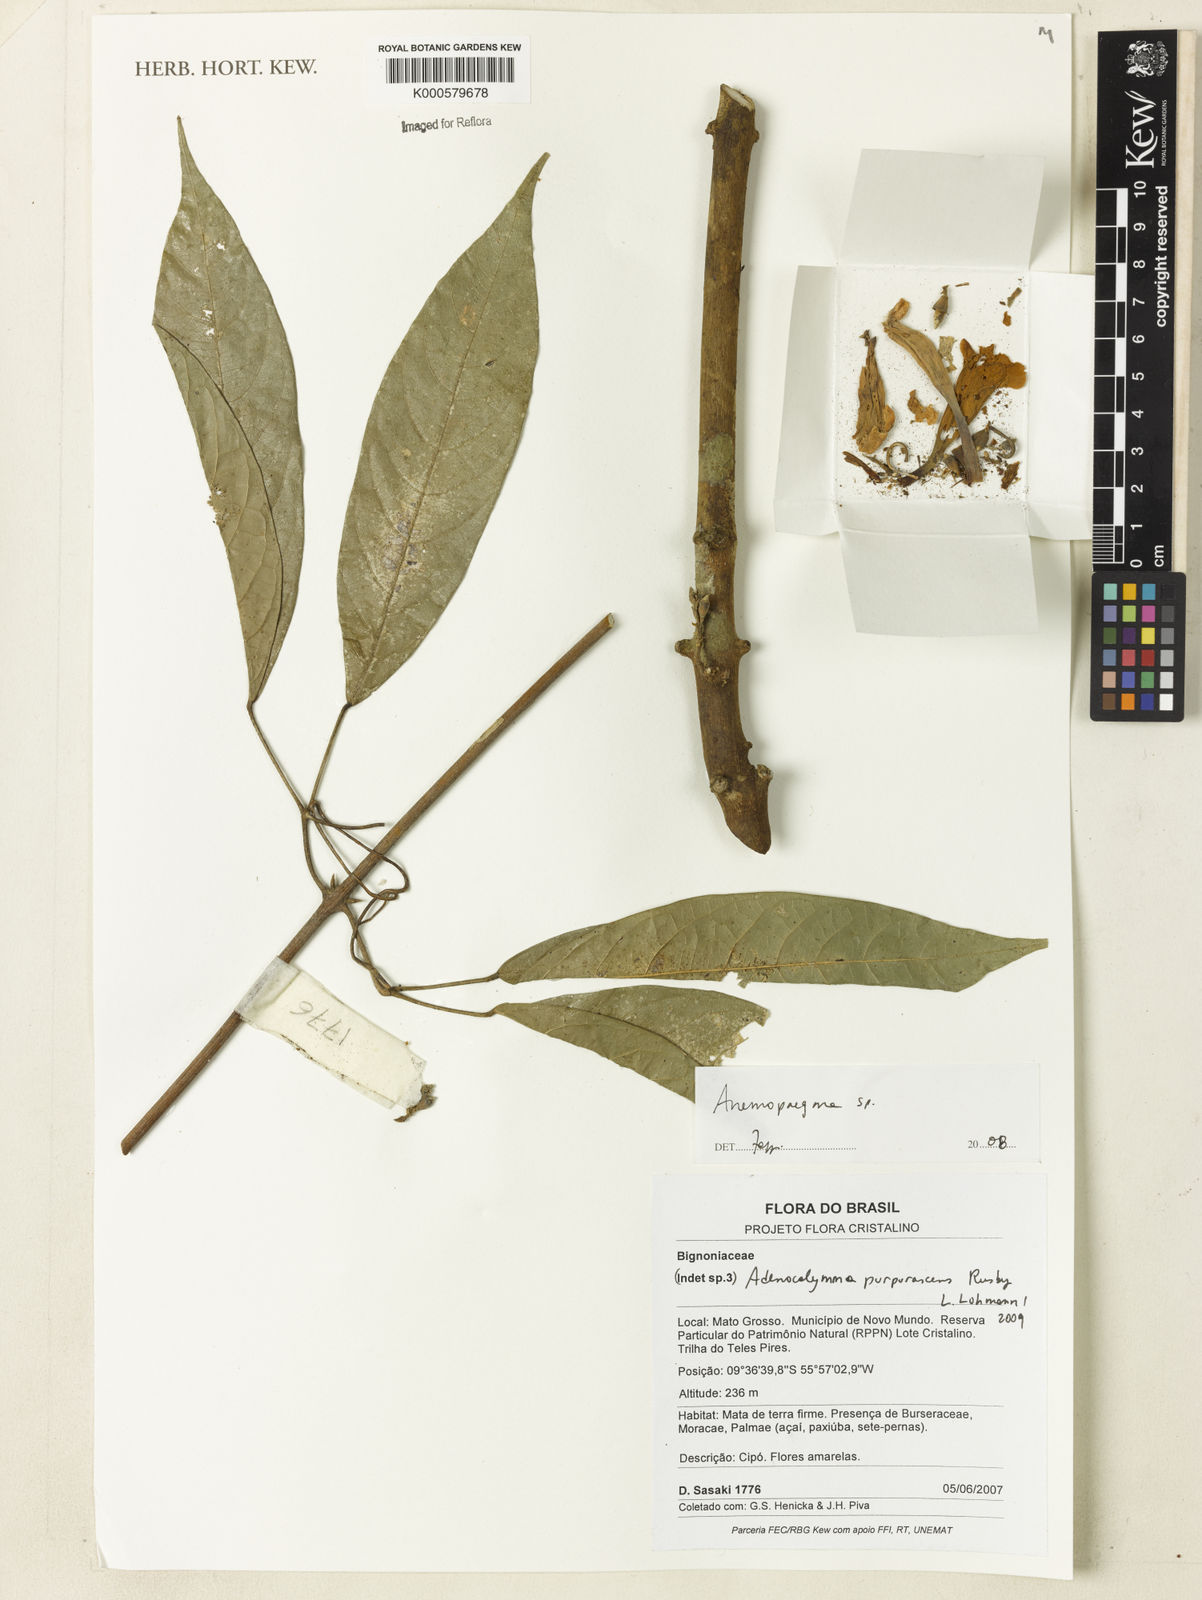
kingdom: Plantae
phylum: Tracheophyta
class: Magnoliopsida
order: Lamiales
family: Bignoniaceae
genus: Adenocalymma
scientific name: Adenocalymma purpurascens
